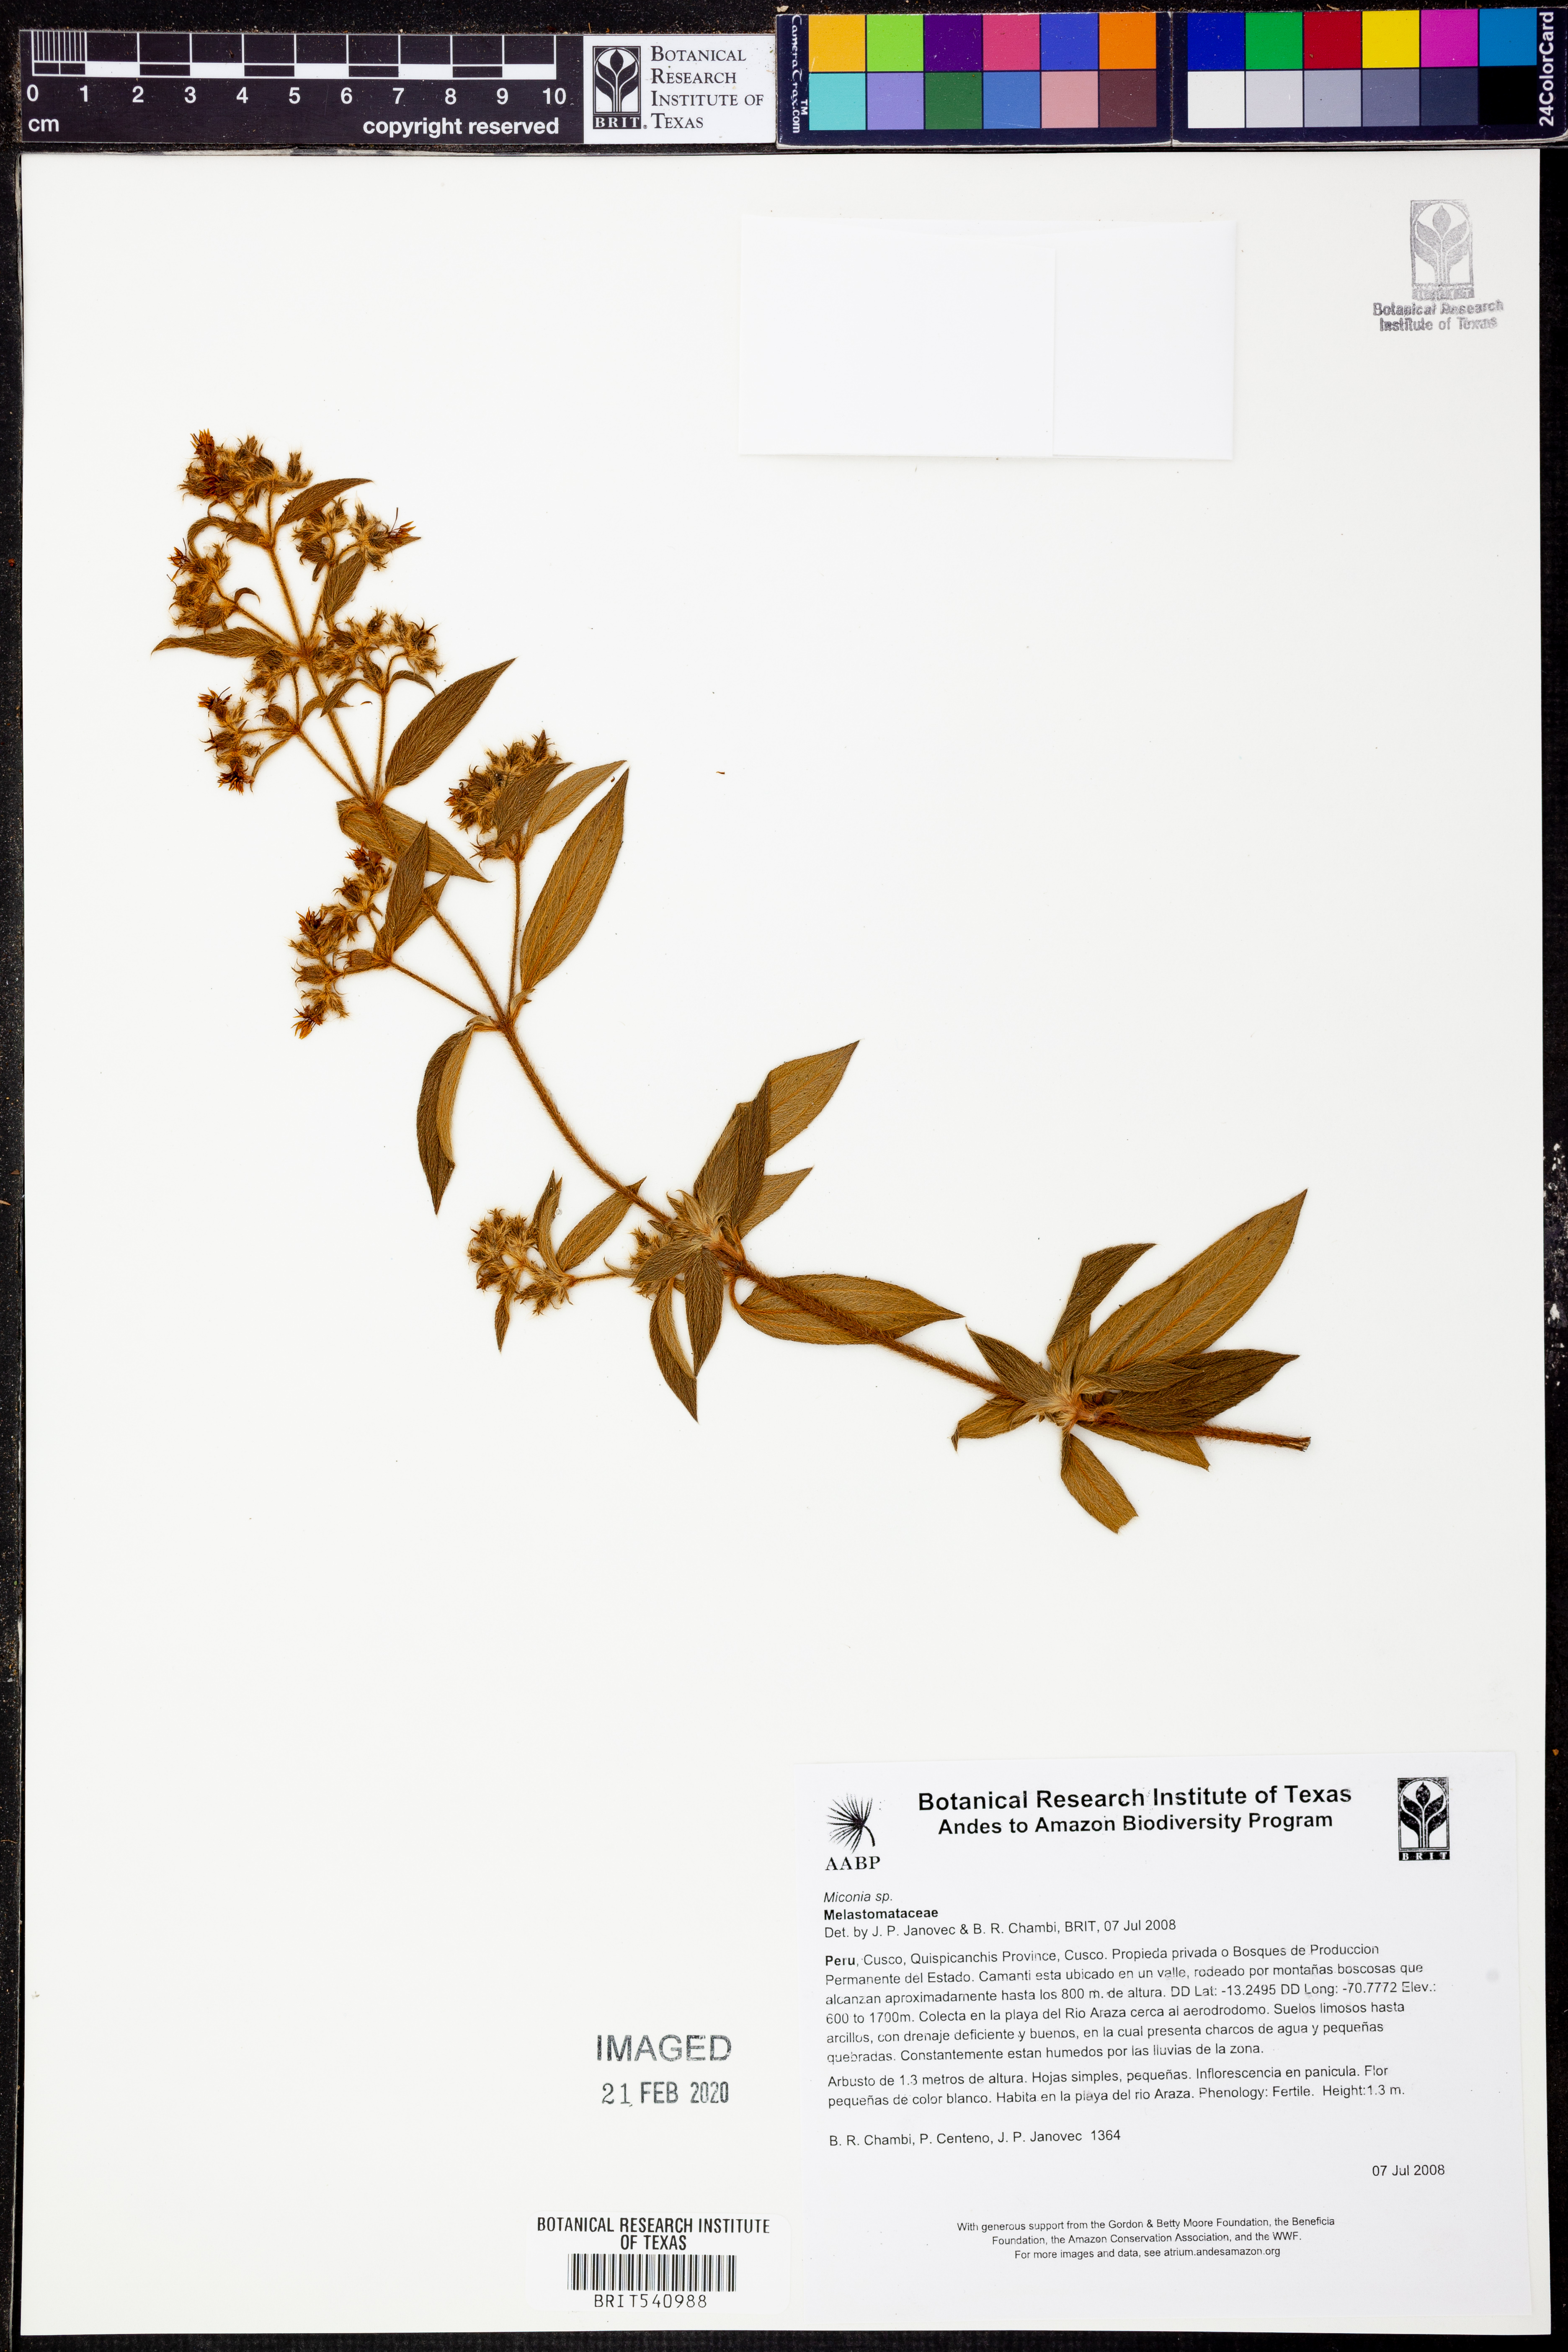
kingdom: Plantae
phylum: Tracheophyta
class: Magnoliopsida
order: Myrtales
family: Melastomataceae
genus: Miconia
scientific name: Miconia
